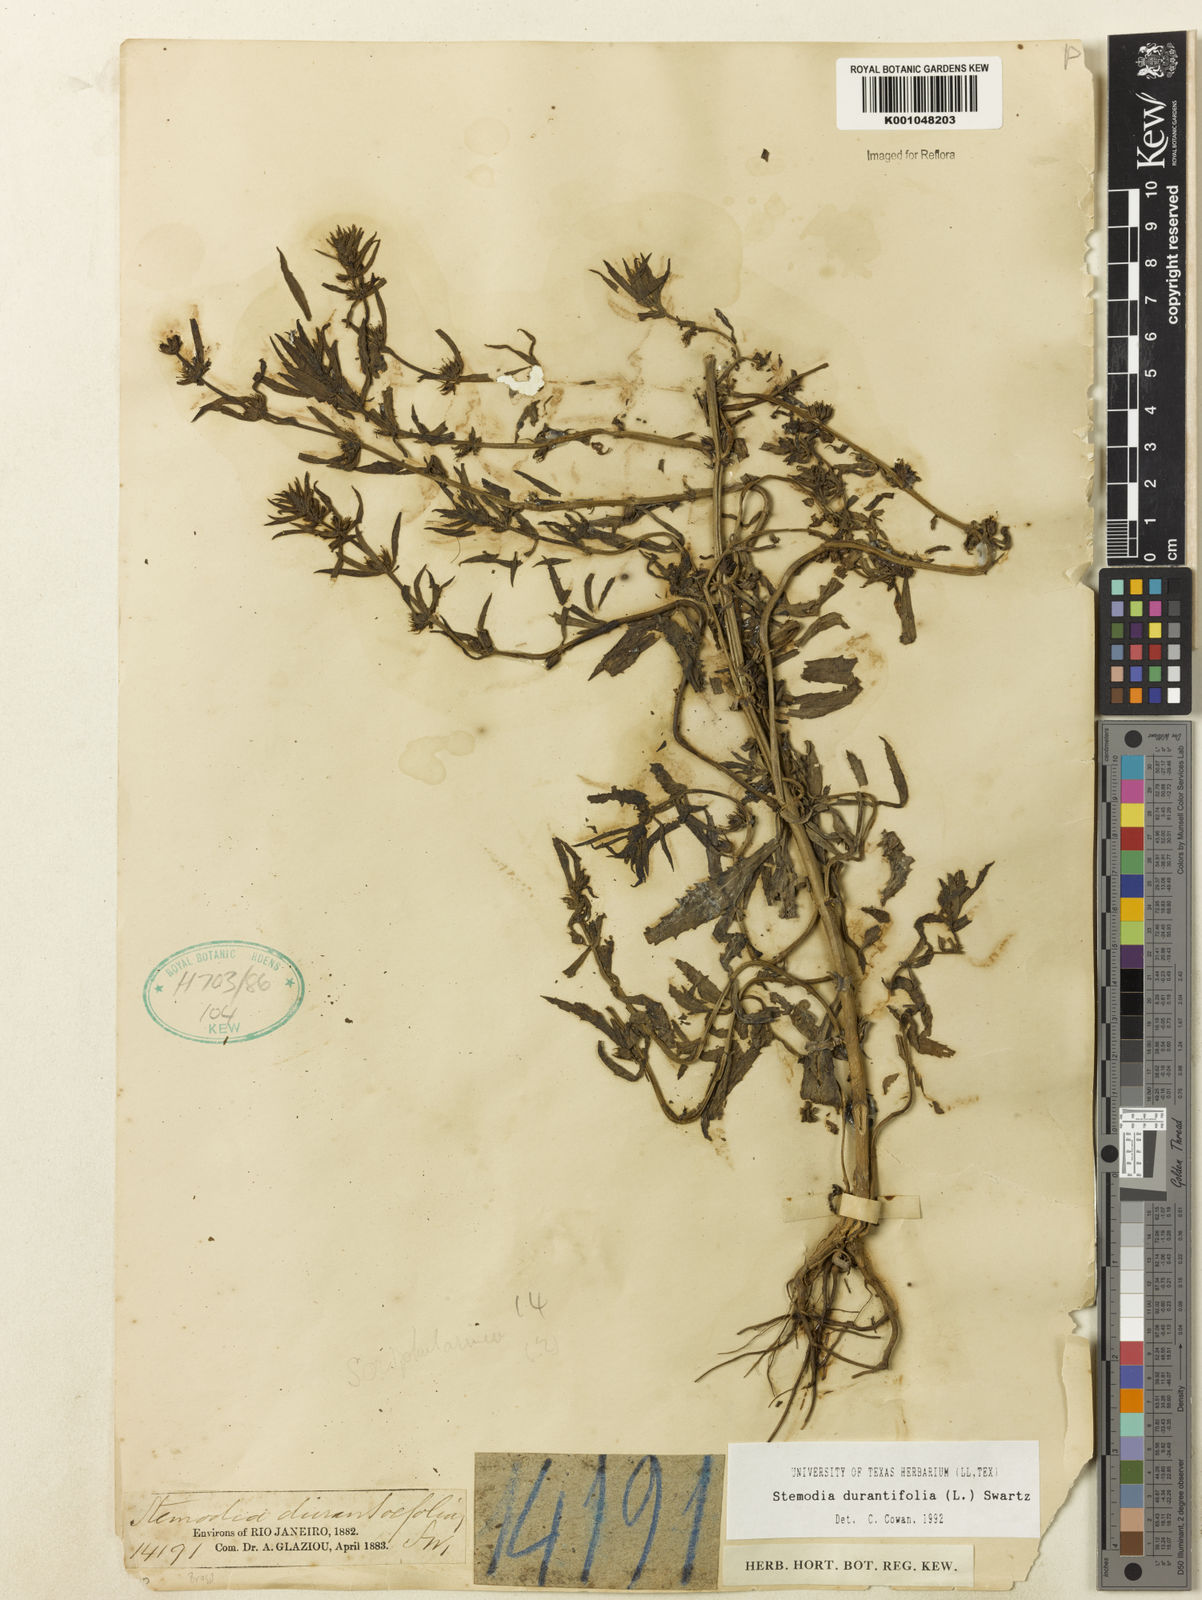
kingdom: Plantae
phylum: Tracheophyta
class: Magnoliopsida
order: Lamiales
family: Plantaginaceae
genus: Stemodia
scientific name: Stemodia durantifolia
